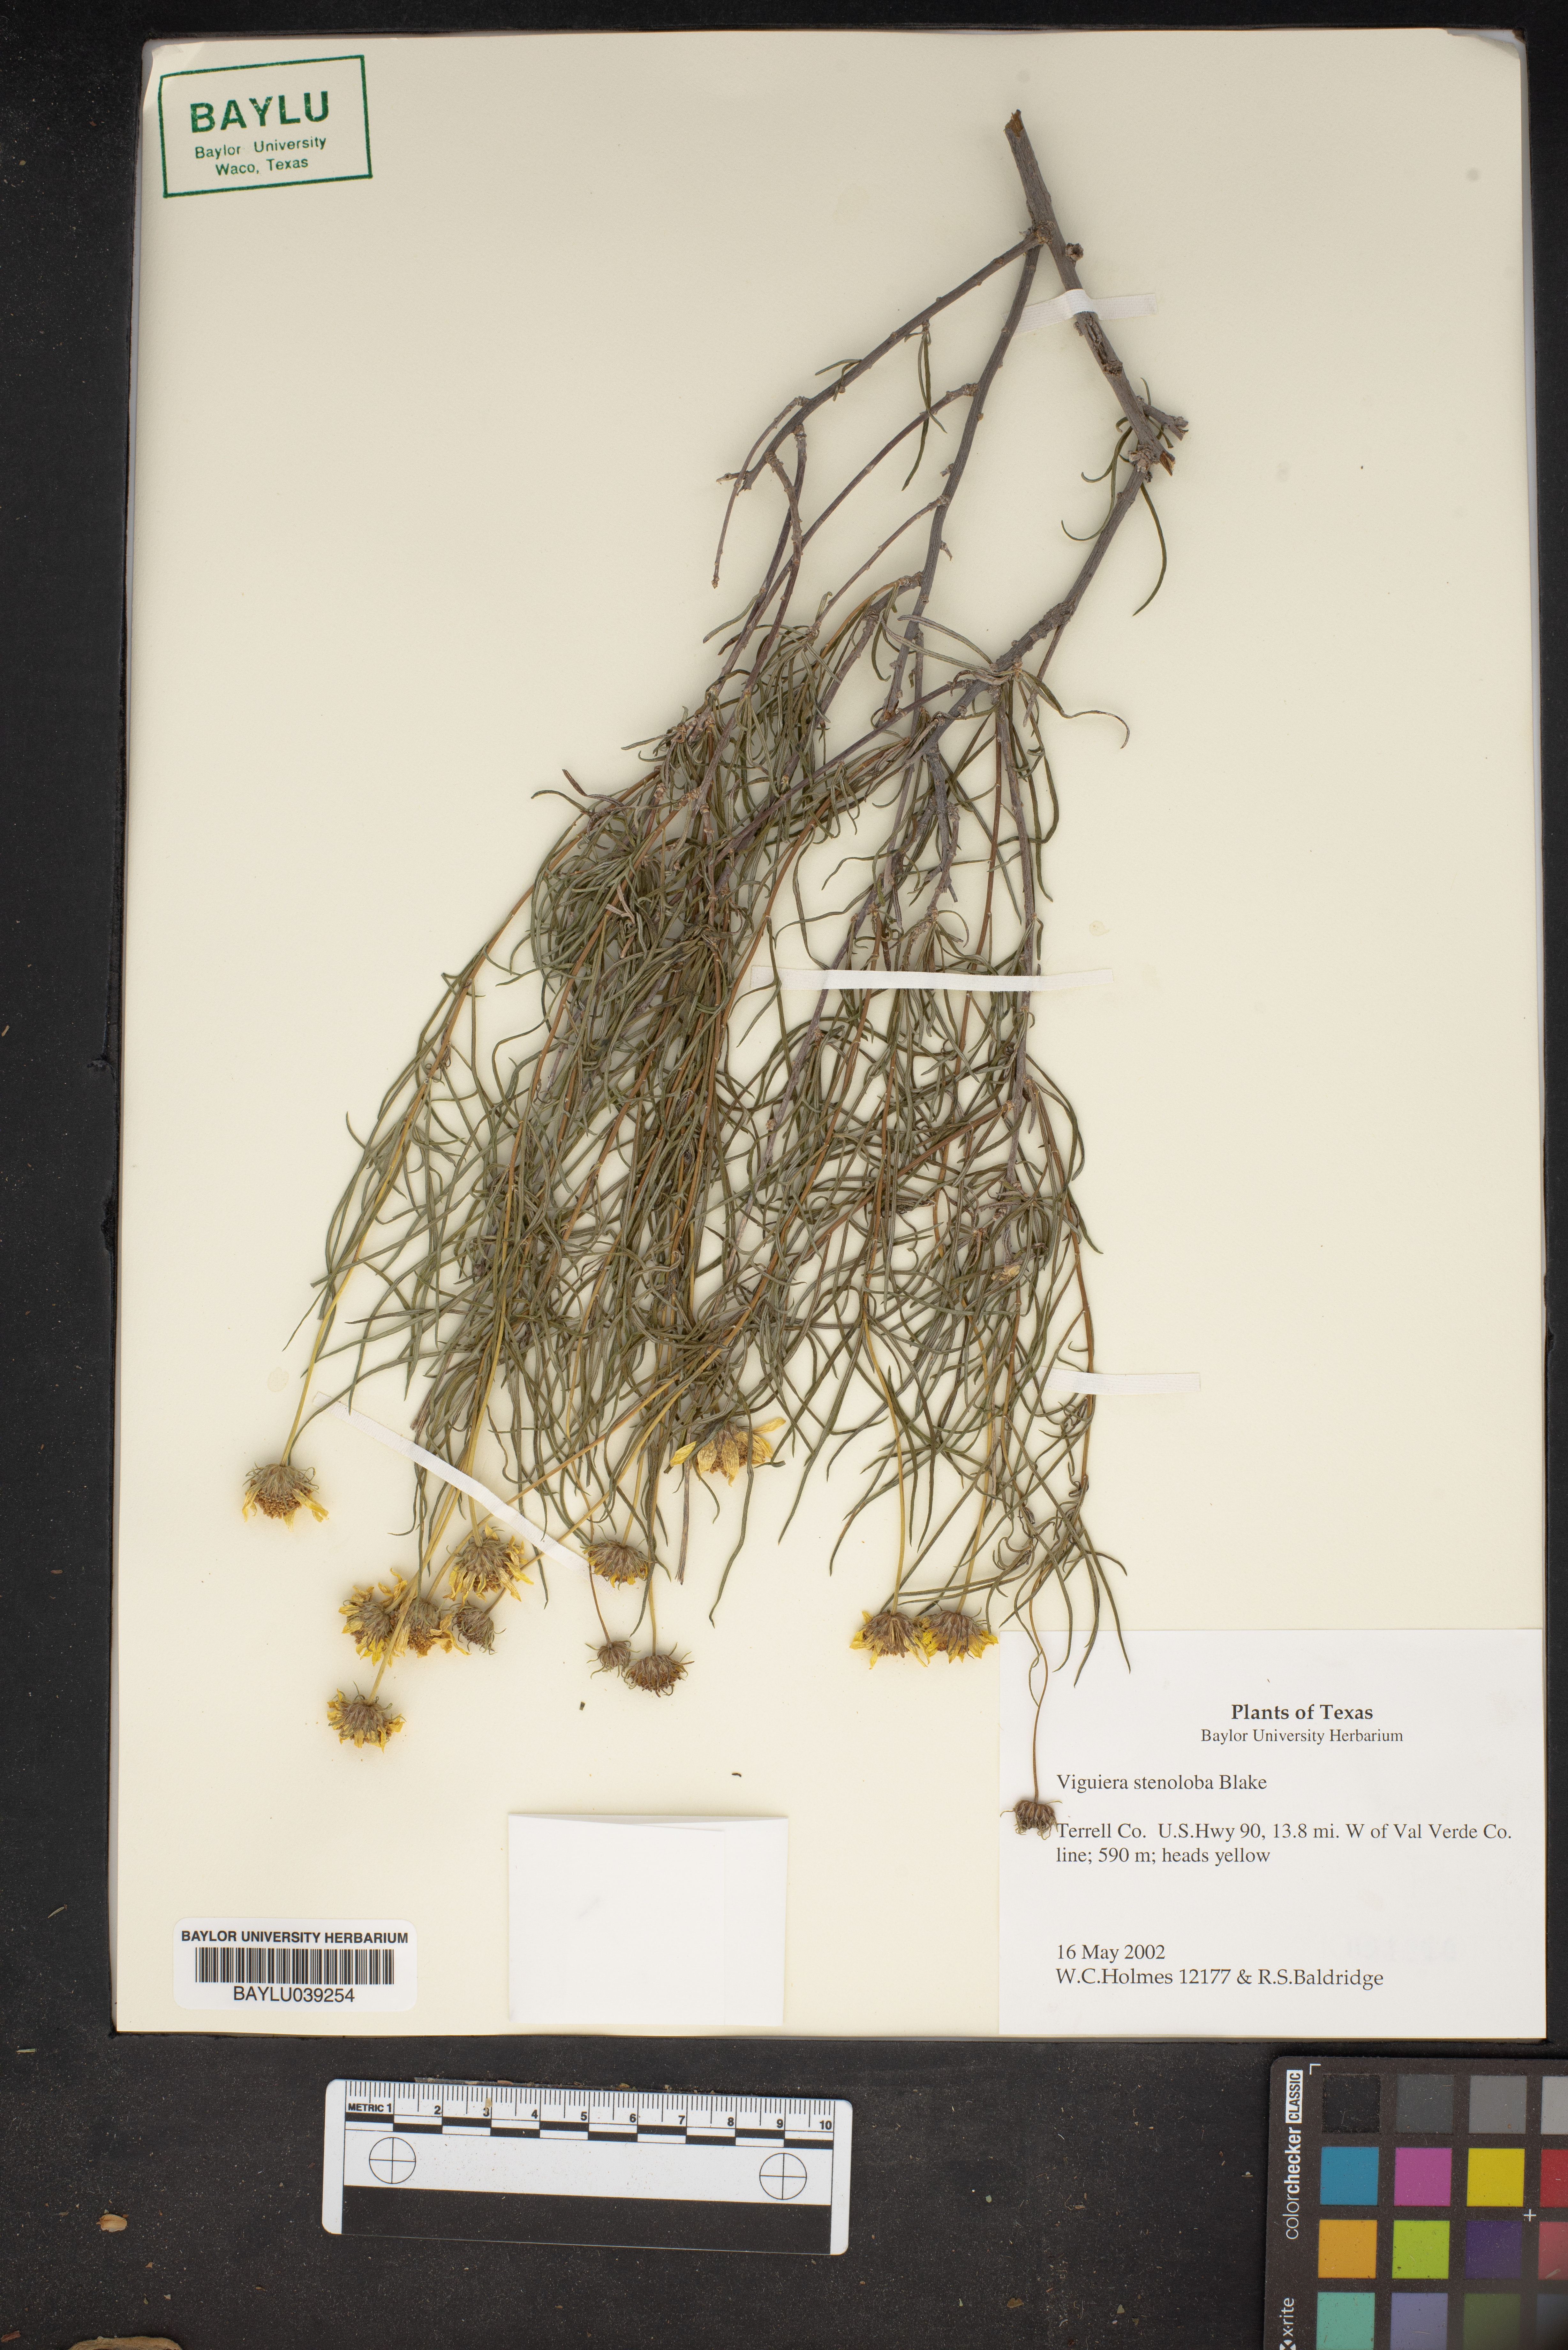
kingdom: Plantae
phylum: Tracheophyta
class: Magnoliopsida
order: Asterales
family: Asteraceae
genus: Sidneya
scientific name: Sidneya tenuifolia
